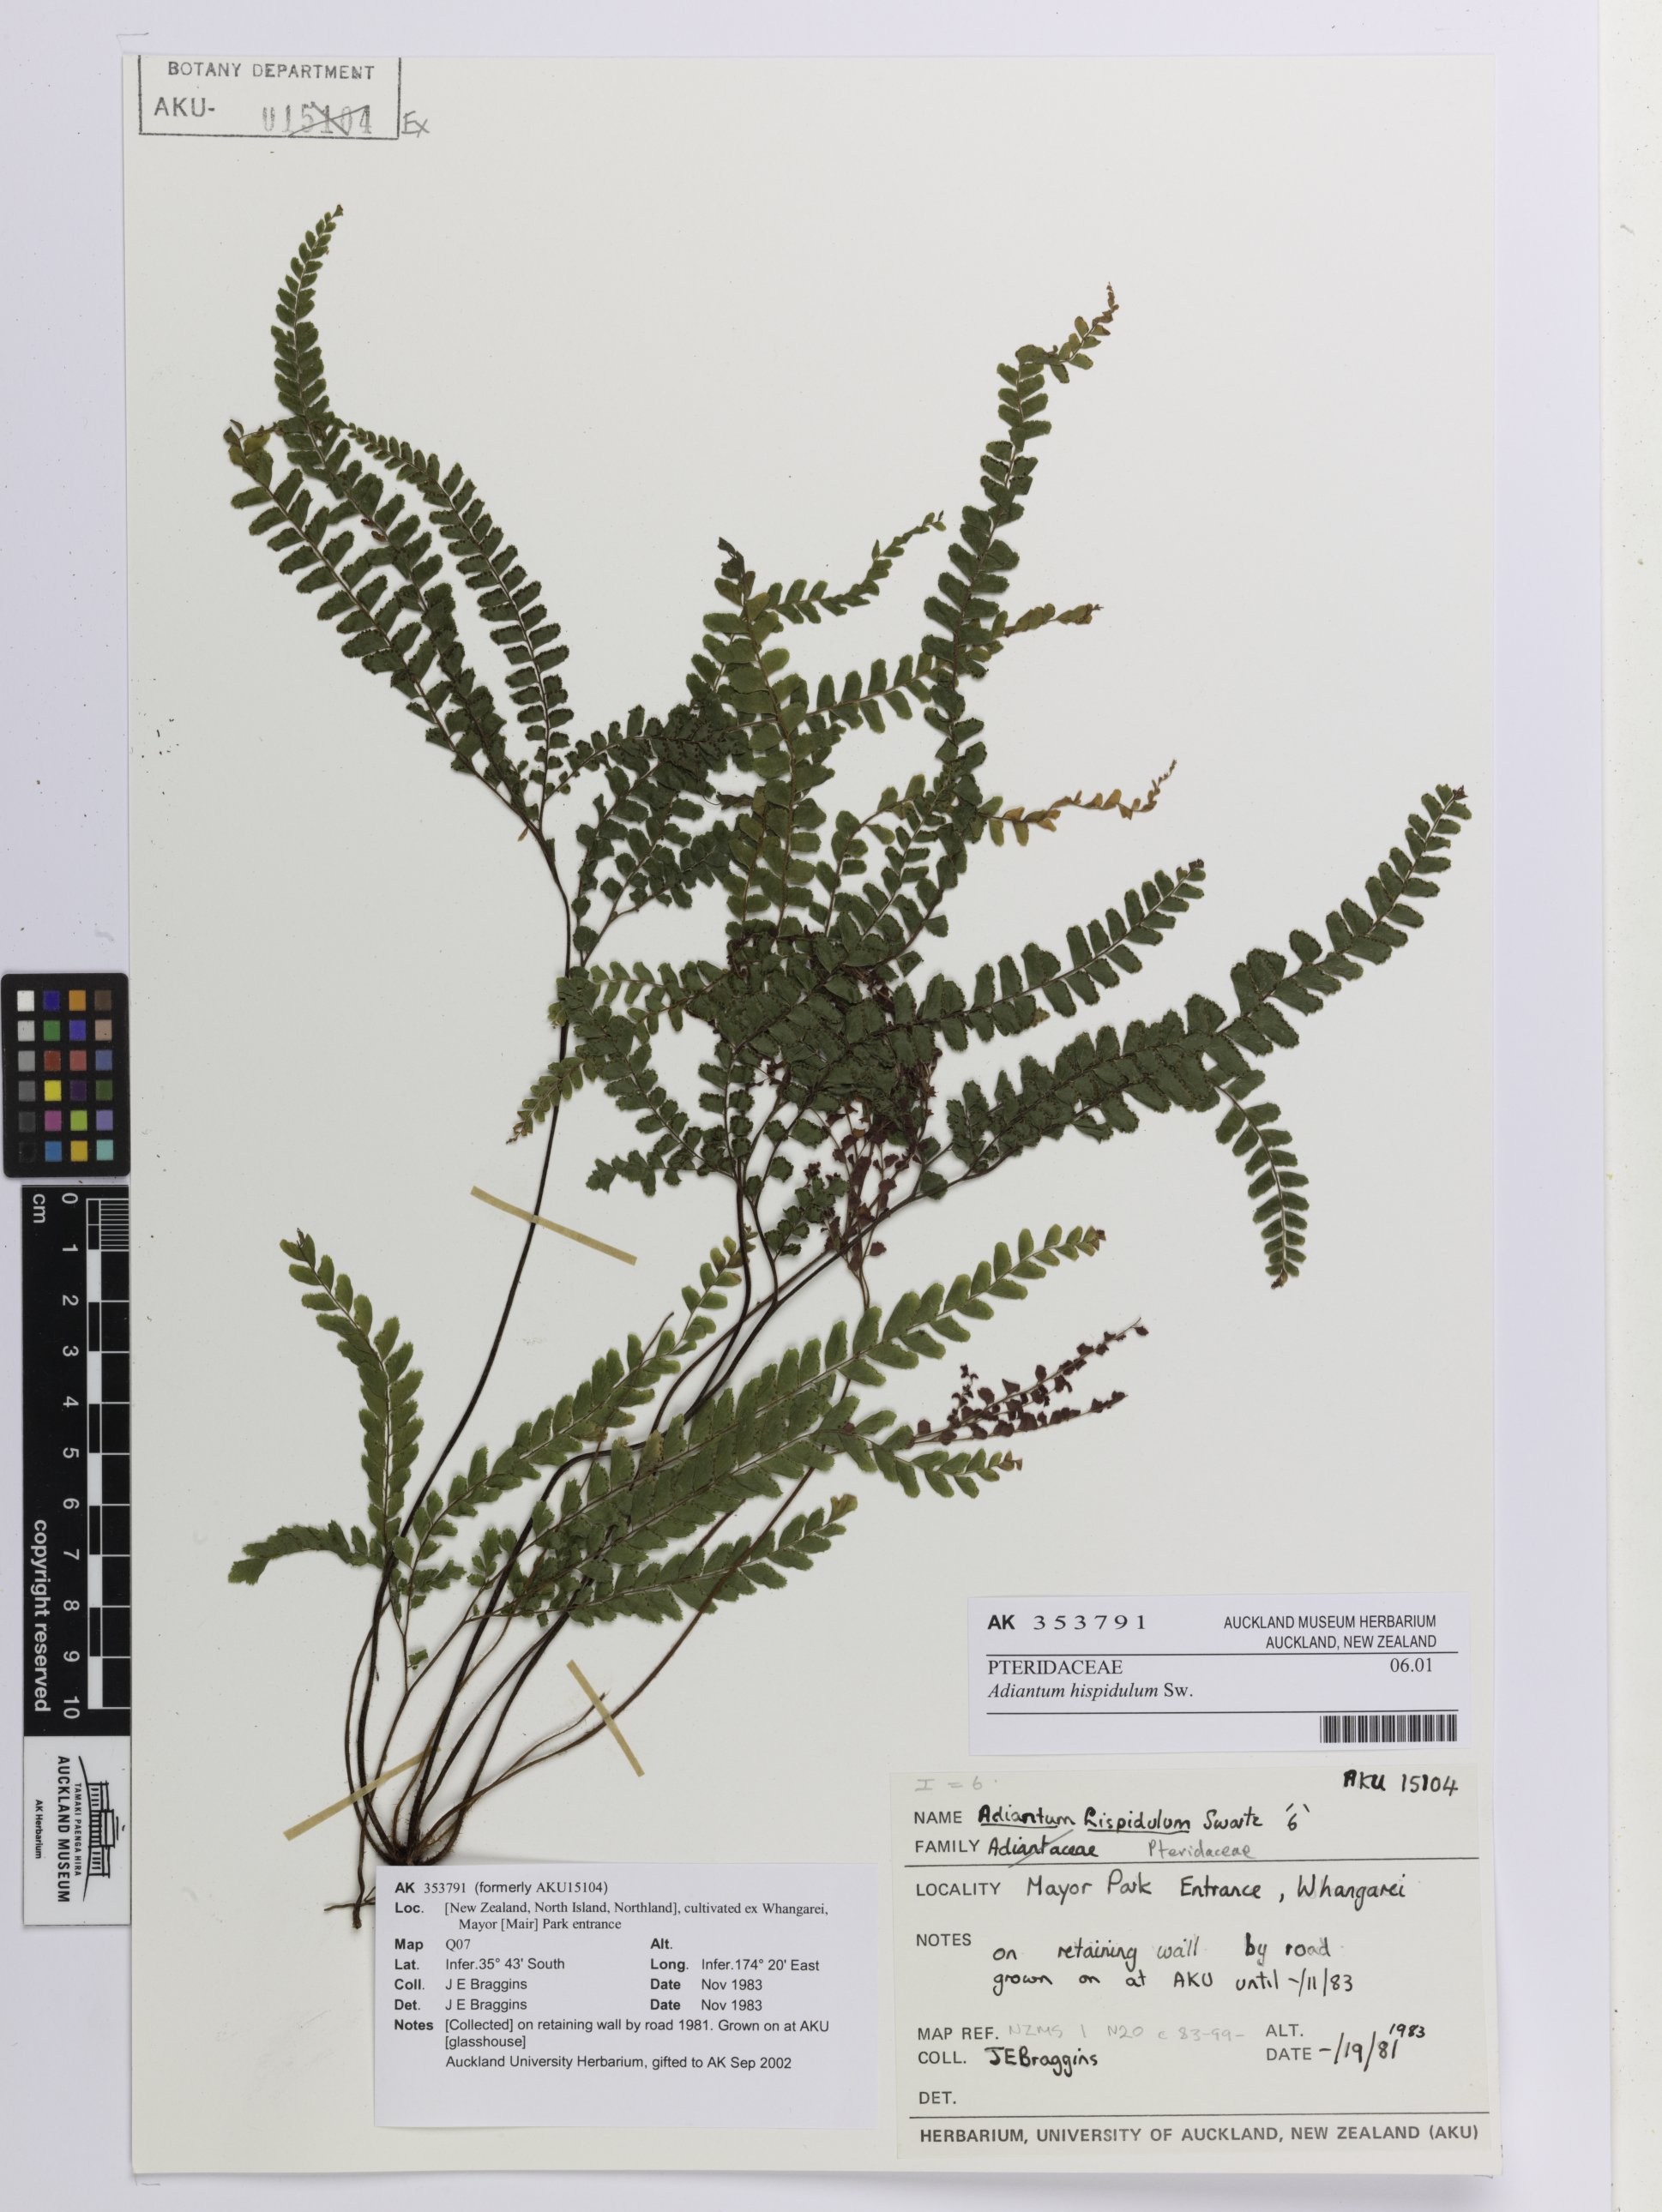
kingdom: Plantae
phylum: Tracheophyta
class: Polypodiopsida
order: Polypodiales
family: Pteridaceae
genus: Adiantum
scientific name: Adiantum hispidulum
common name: Rough maidenhair
